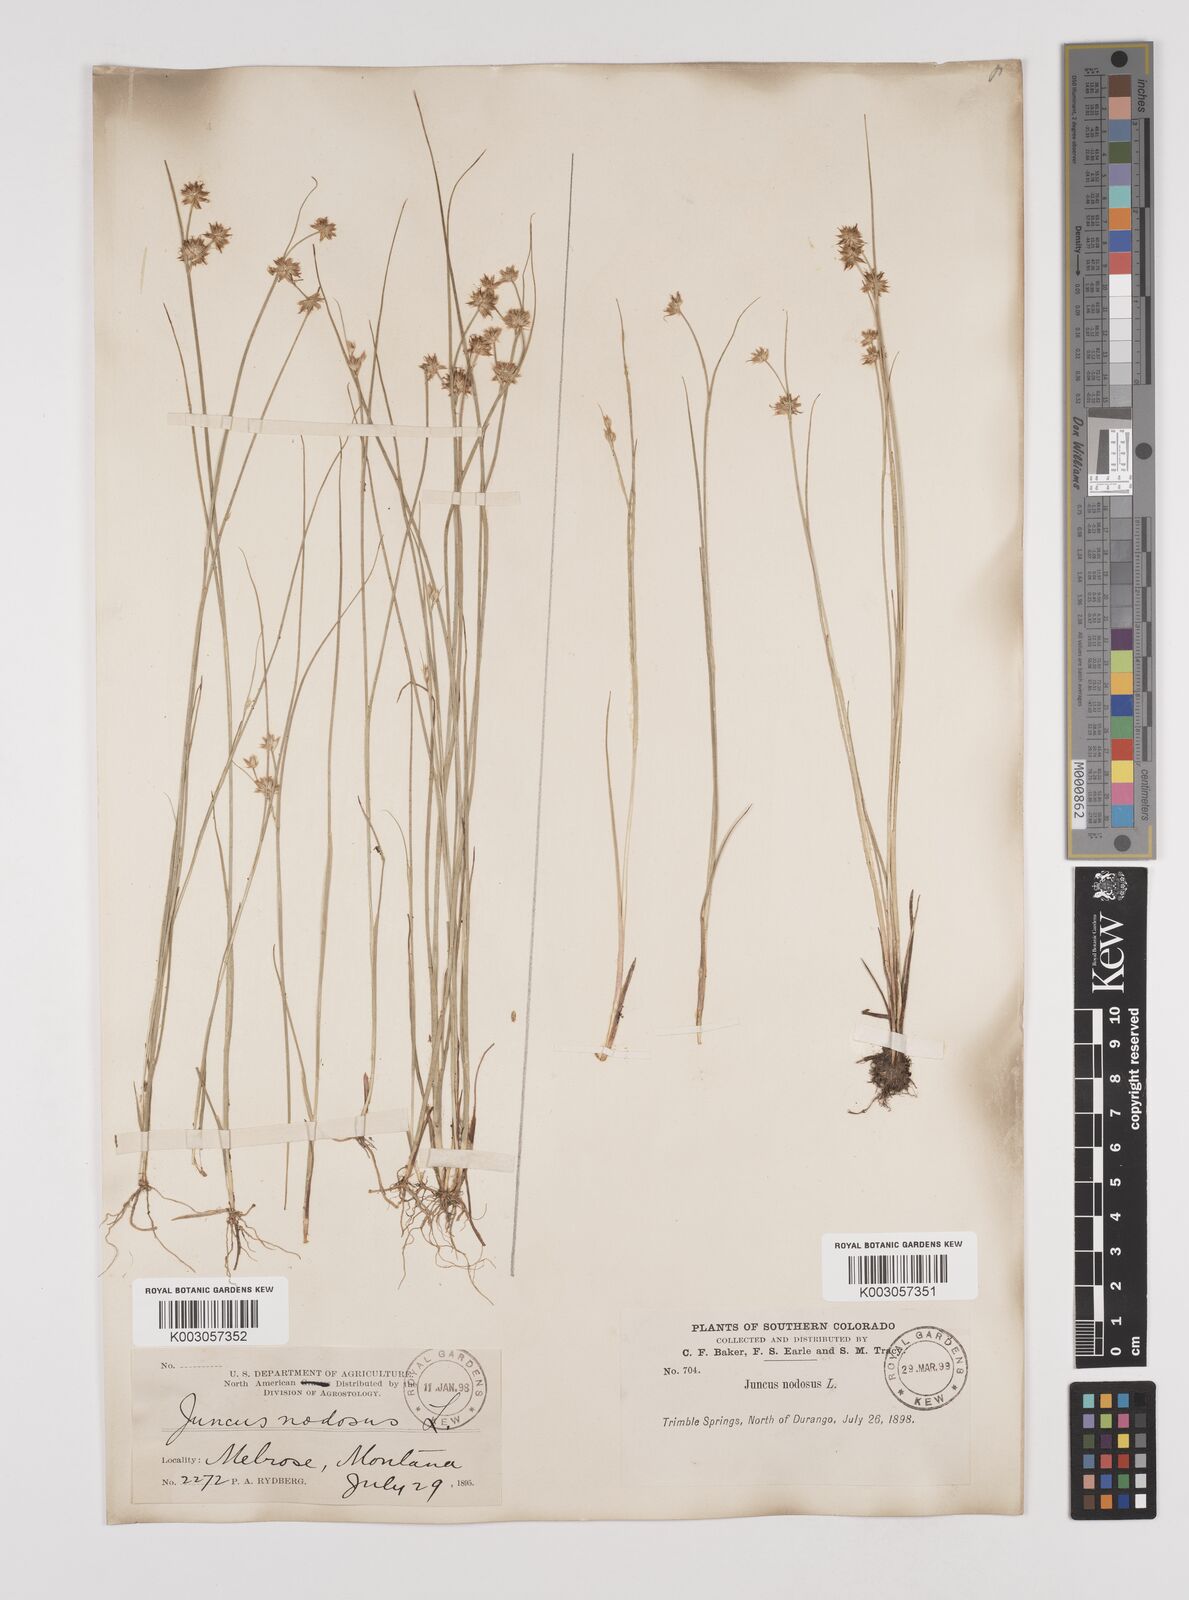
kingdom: Plantae
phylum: Tracheophyta
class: Liliopsida
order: Poales
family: Juncaceae
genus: Juncus
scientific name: Juncus nodosus
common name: Knotted rush
